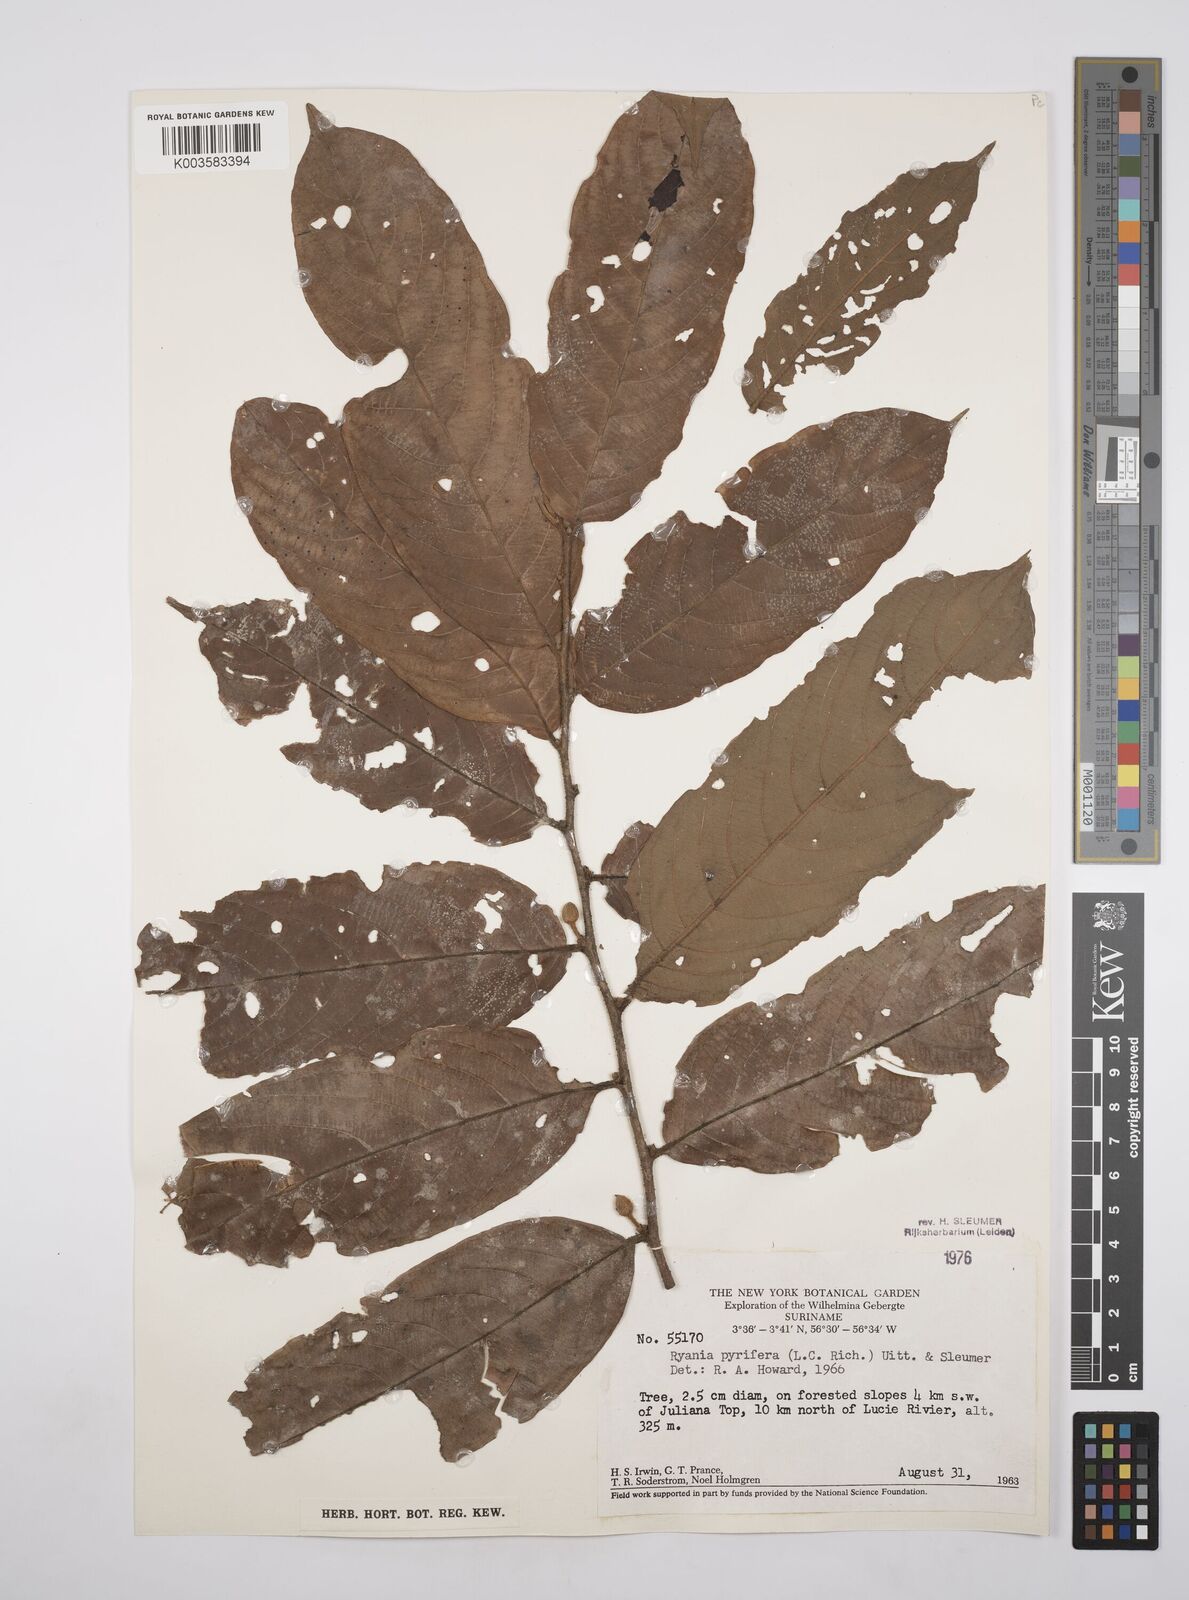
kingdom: Plantae
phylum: Tracheophyta
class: Magnoliopsida
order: Malpighiales
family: Salicaceae
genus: Ryania
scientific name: Ryania pyrifera
